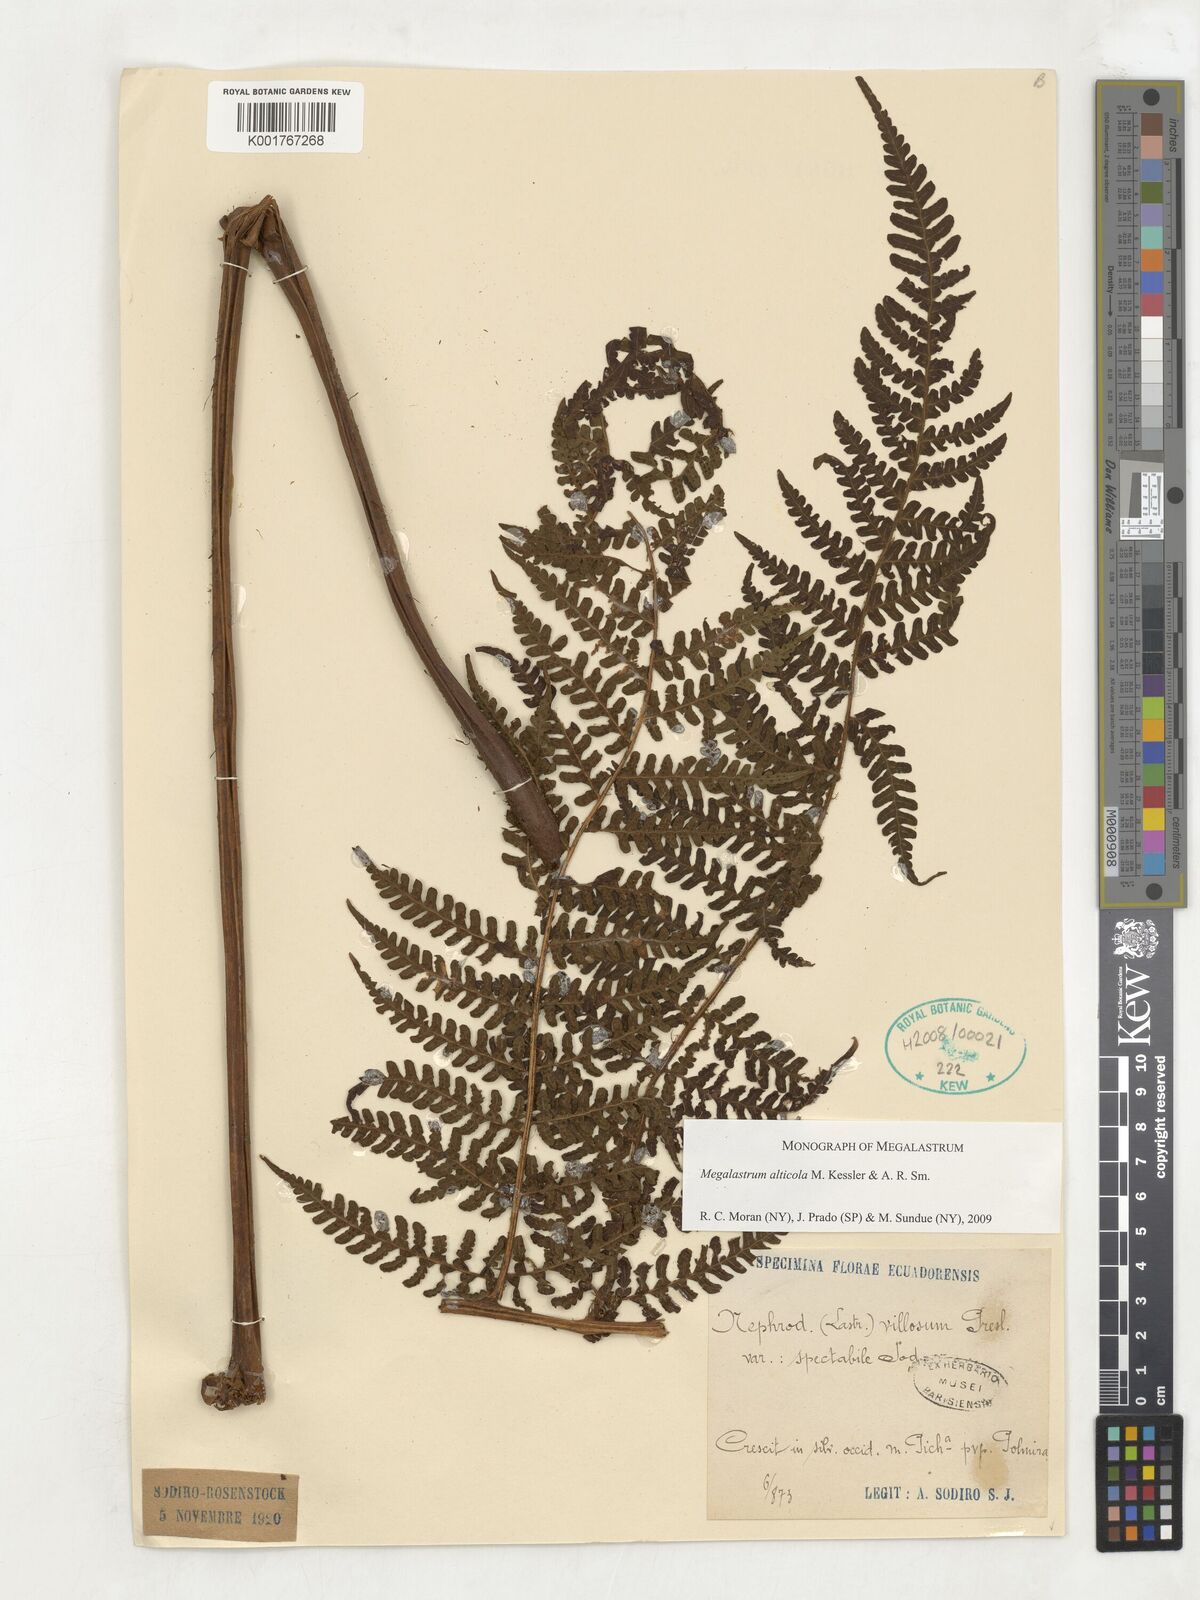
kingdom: Plantae
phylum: Tracheophyta
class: Polypodiopsida
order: Polypodiales
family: Dryopteridaceae
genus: Megalastrum
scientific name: Megalastrum alticola
